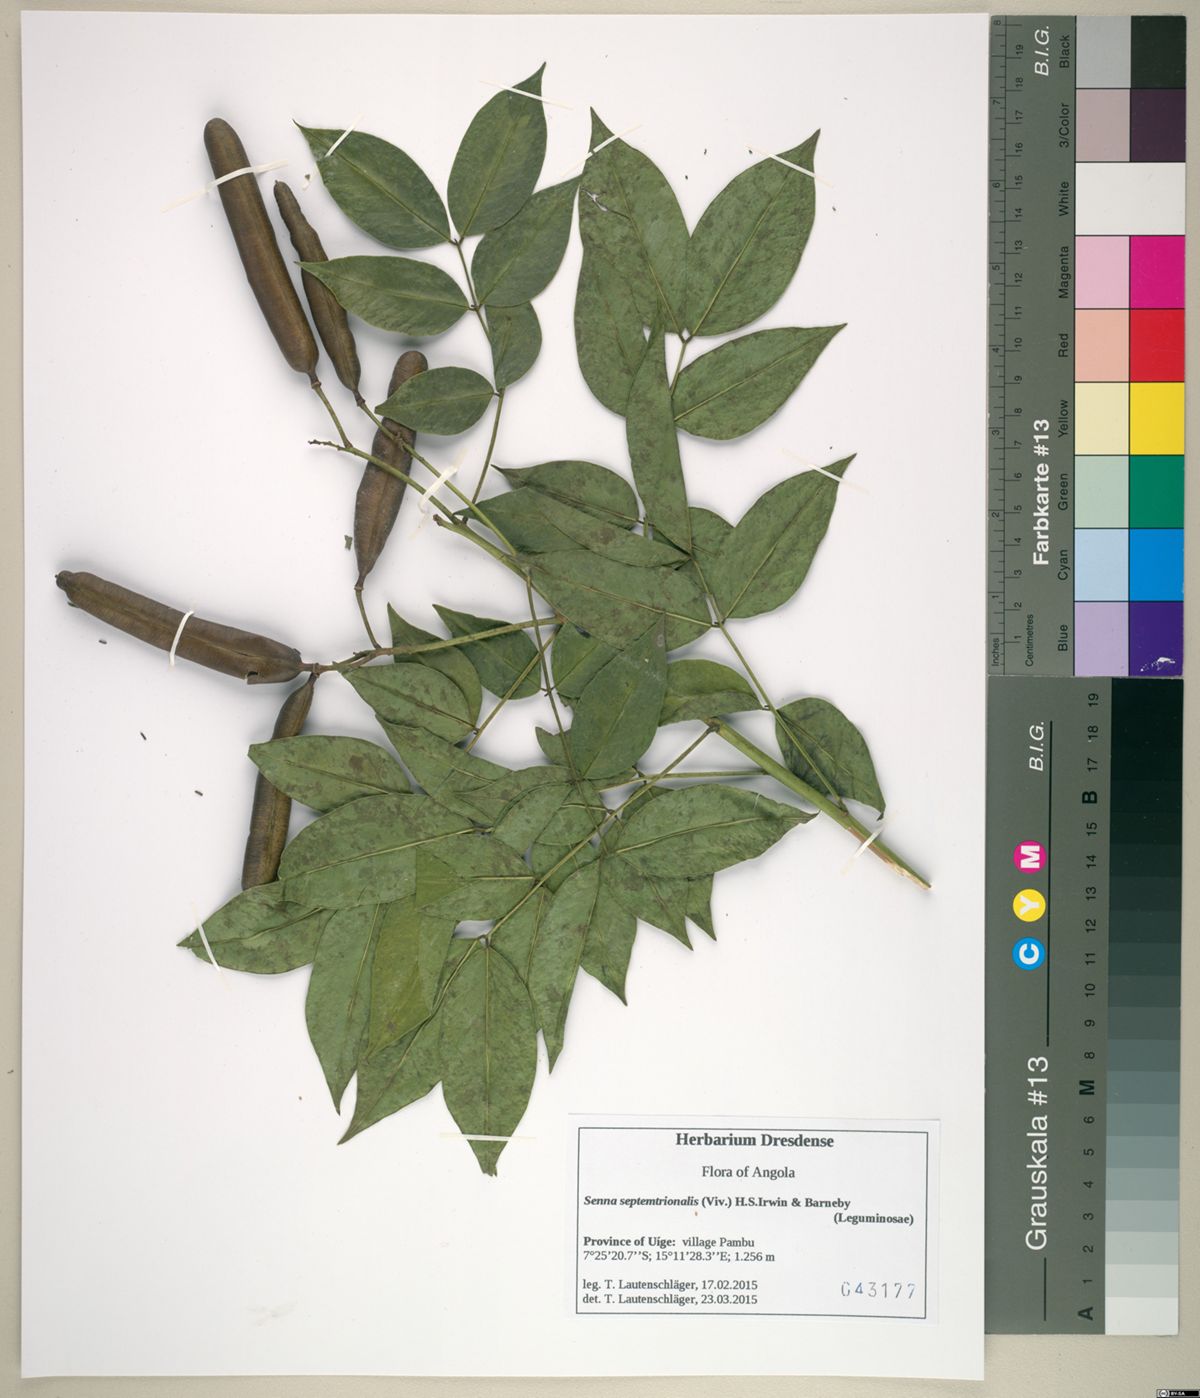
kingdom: Plantae
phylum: Tracheophyta
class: Magnoliopsida
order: Fabales
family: Fabaceae
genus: Senna
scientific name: Senna septemtrionalis
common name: Arsenic bush
